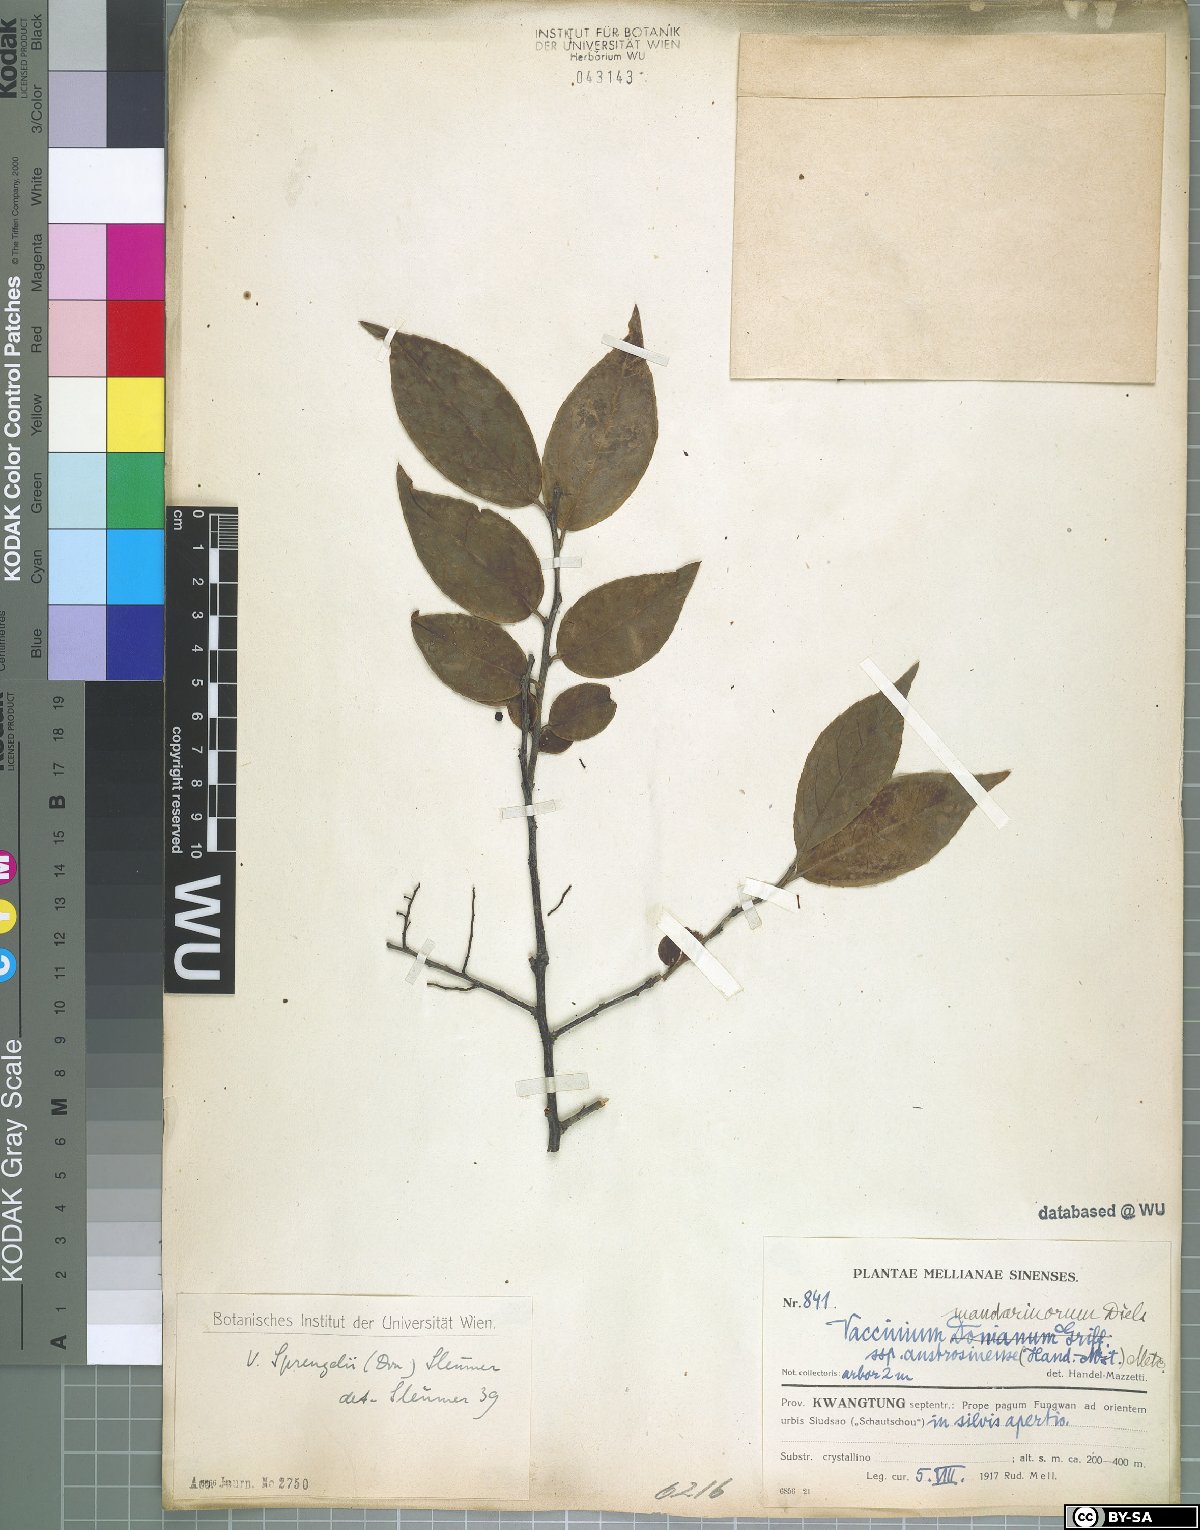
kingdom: Plantae
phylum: Tracheophyta
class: Magnoliopsida
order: Ericales
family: Ericaceae
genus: Vaccinium
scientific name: Vaccinium sprengelii
